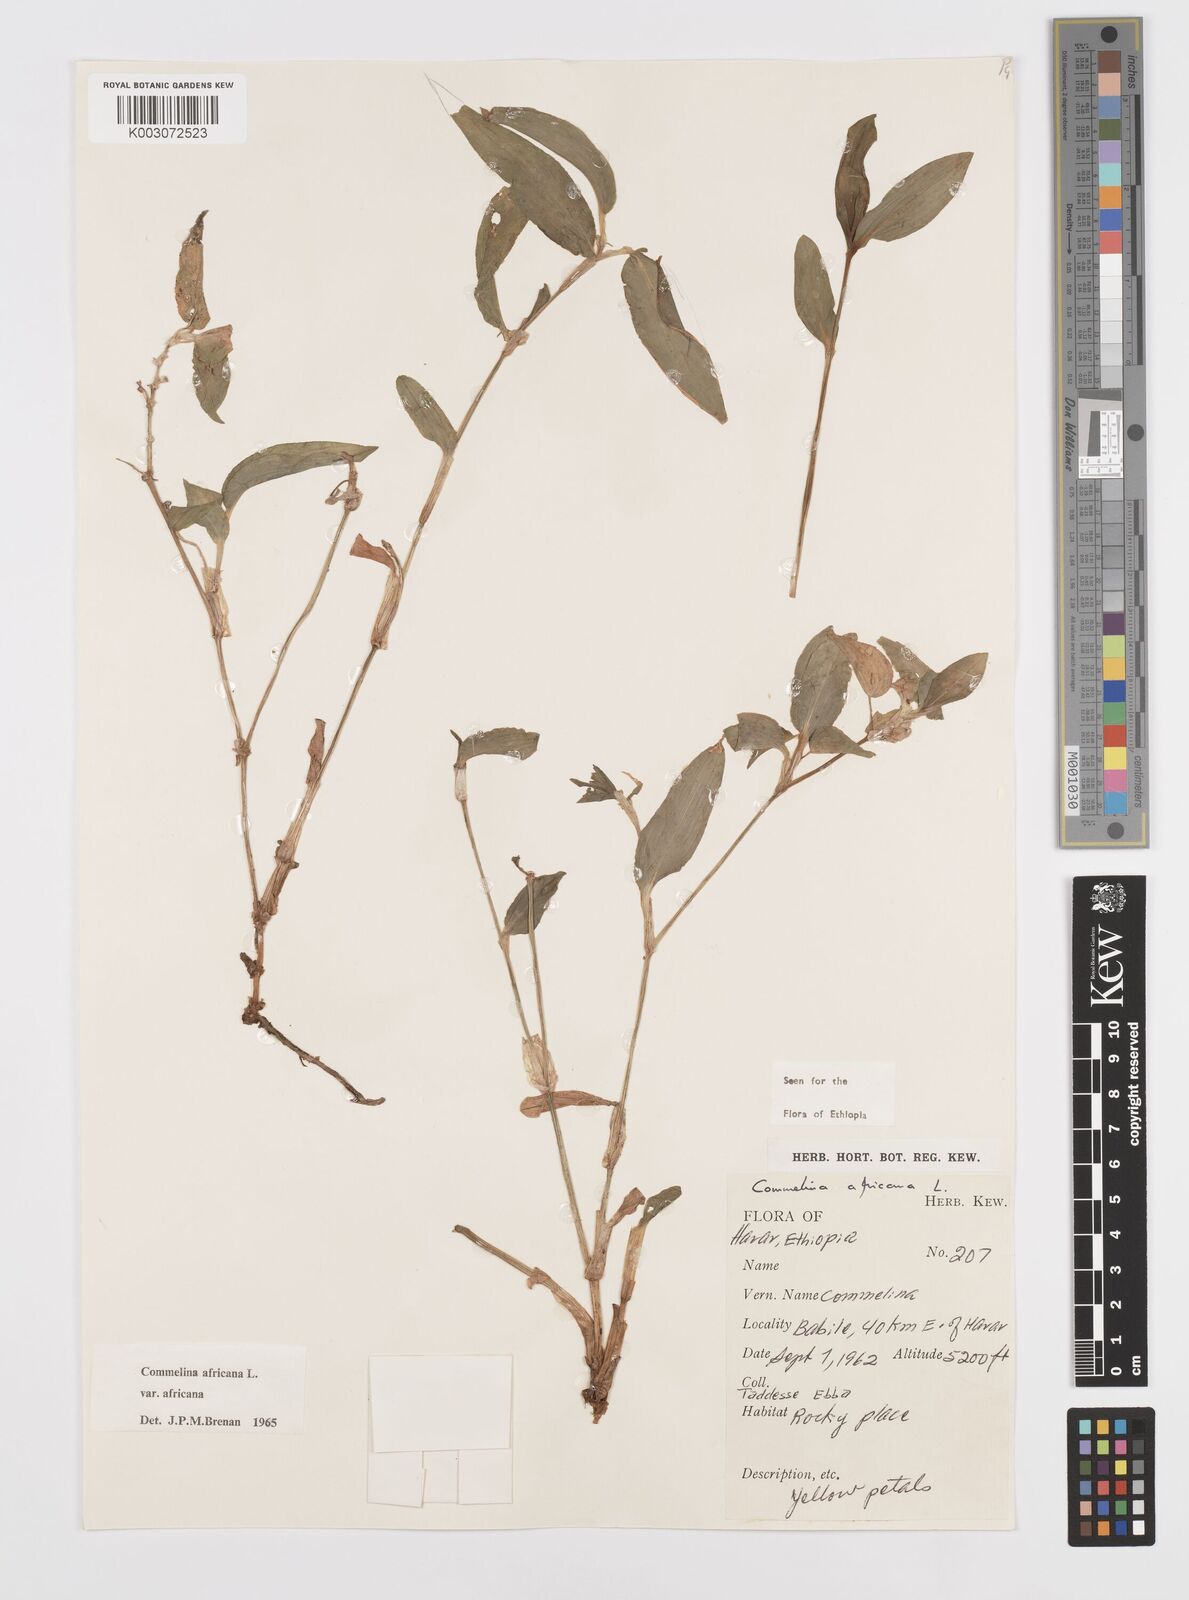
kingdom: Plantae
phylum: Tracheophyta
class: Liliopsida
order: Commelinales
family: Commelinaceae
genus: Commelina
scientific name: Commelina africana
